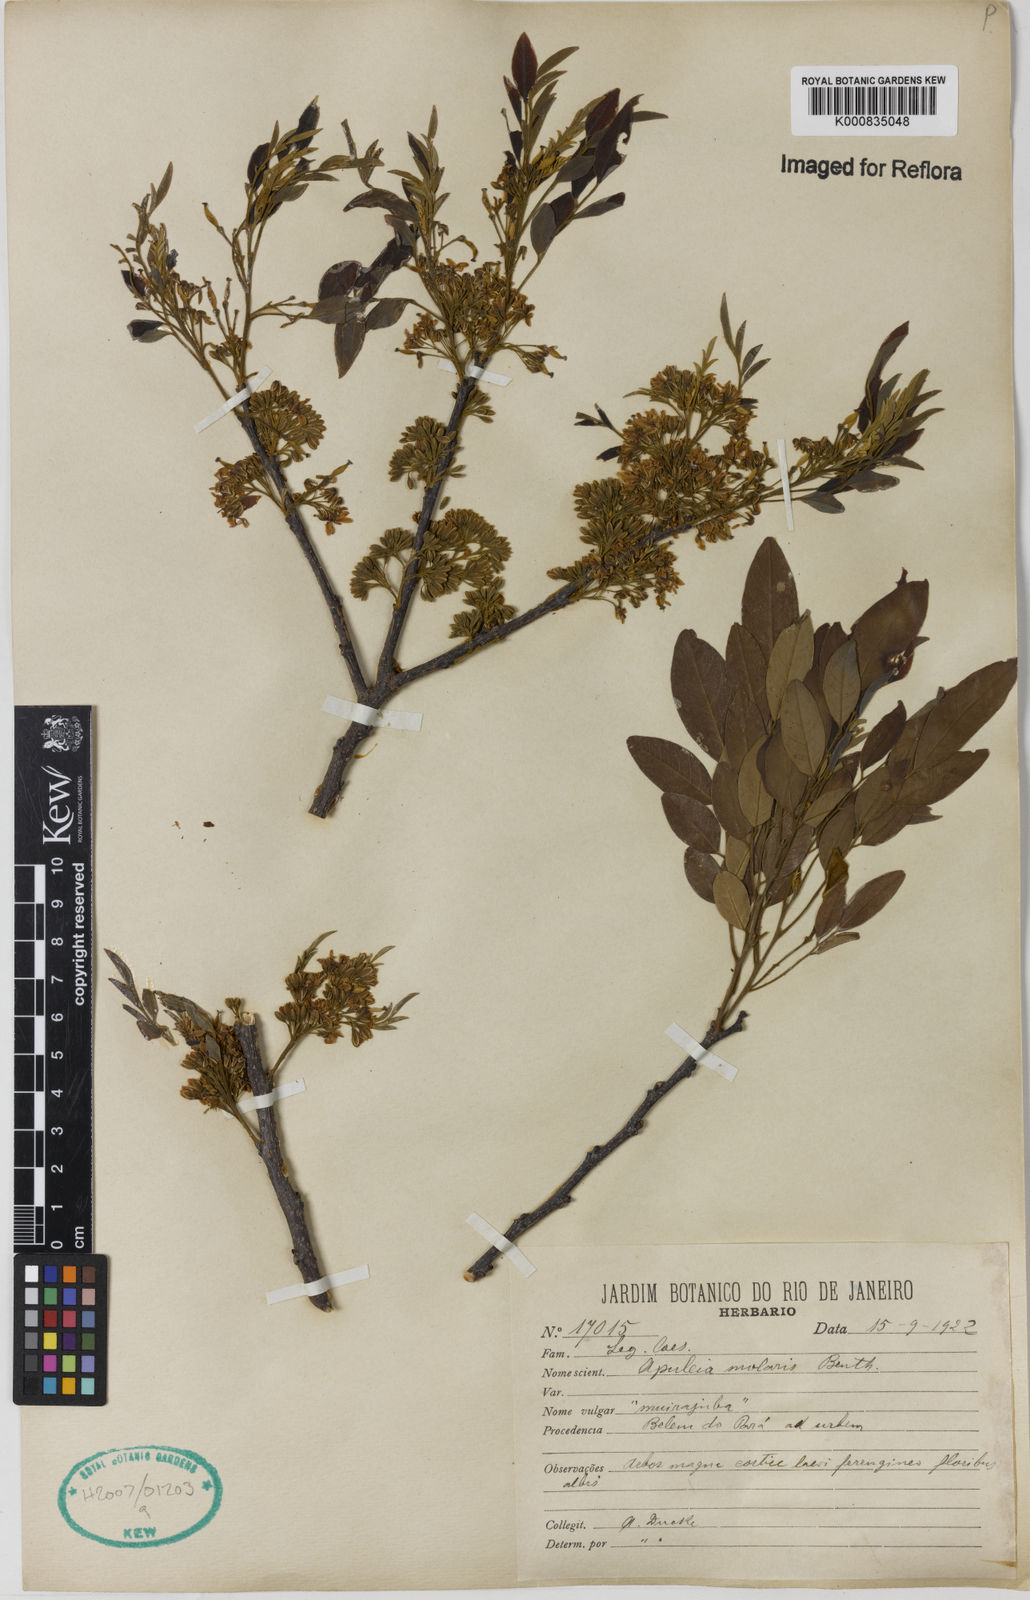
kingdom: Plantae
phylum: Tracheophyta
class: Magnoliopsida
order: Fabales
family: Fabaceae
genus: Apuleia
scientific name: Apuleia leiocarpa
